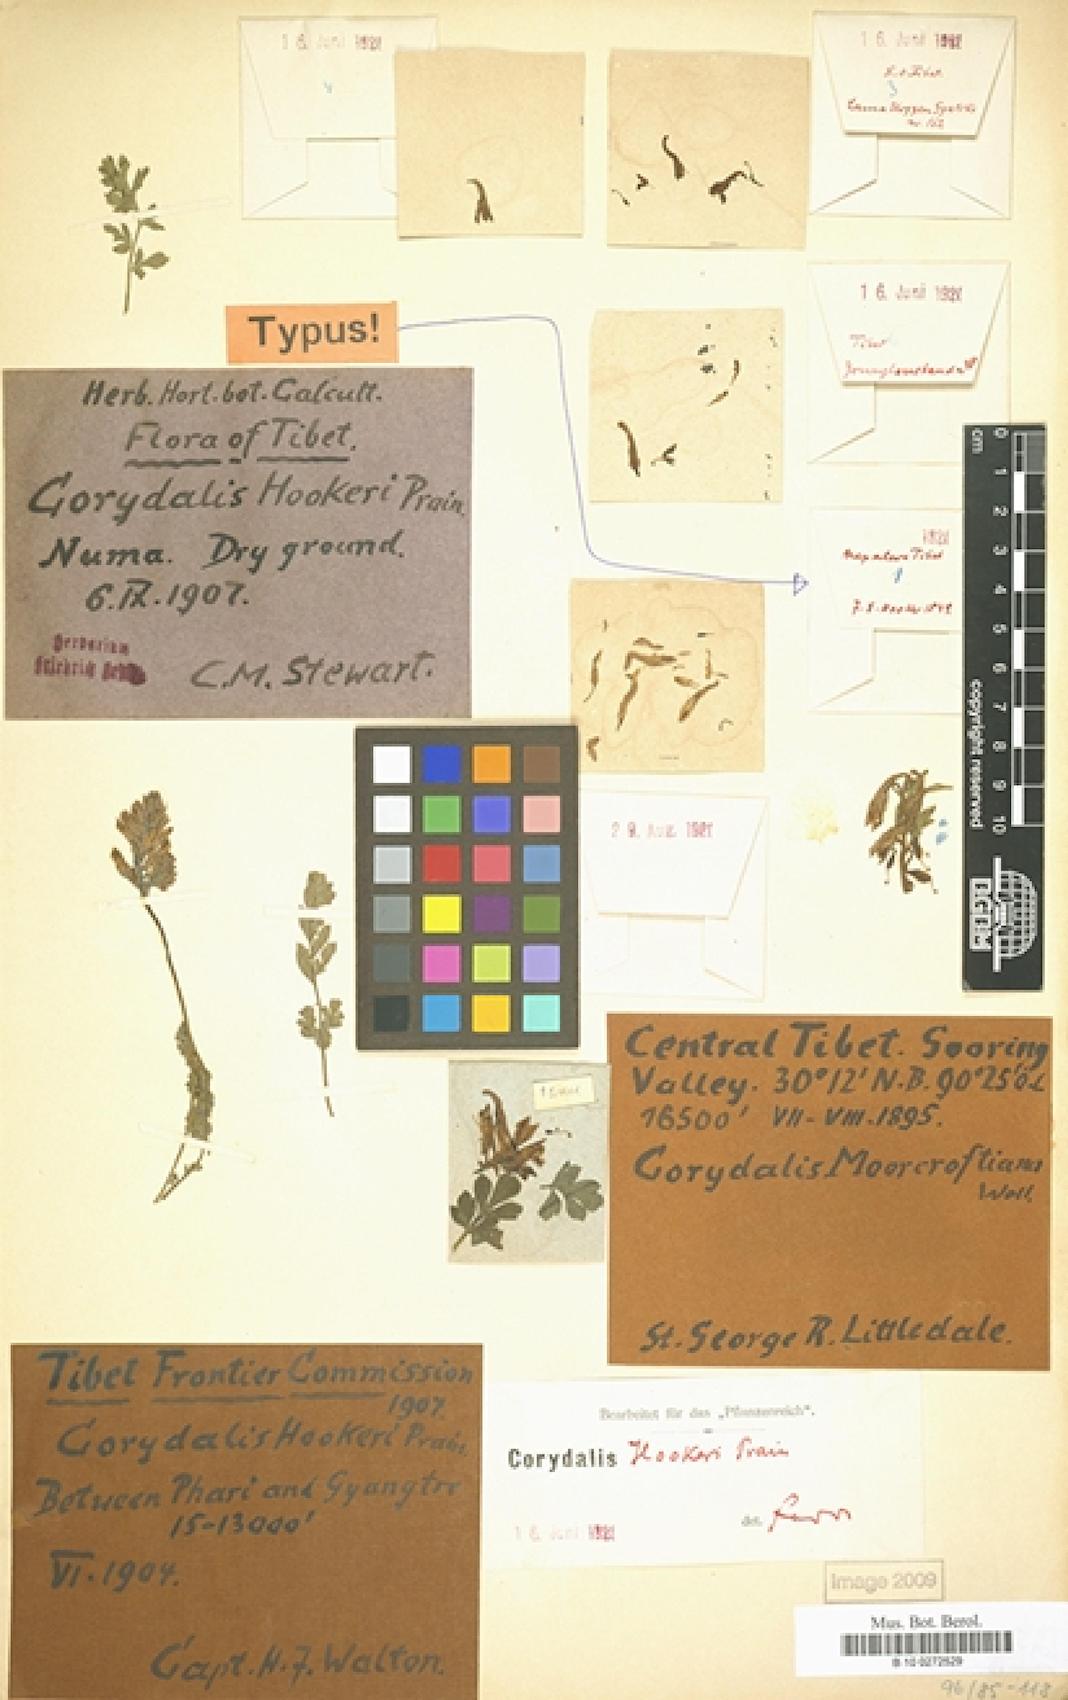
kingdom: Plantae
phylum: Tracheophyta
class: Magnoliopsida
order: Ranunculales
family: Papaveraceae
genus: Corydalis
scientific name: Corydalis hookeri
